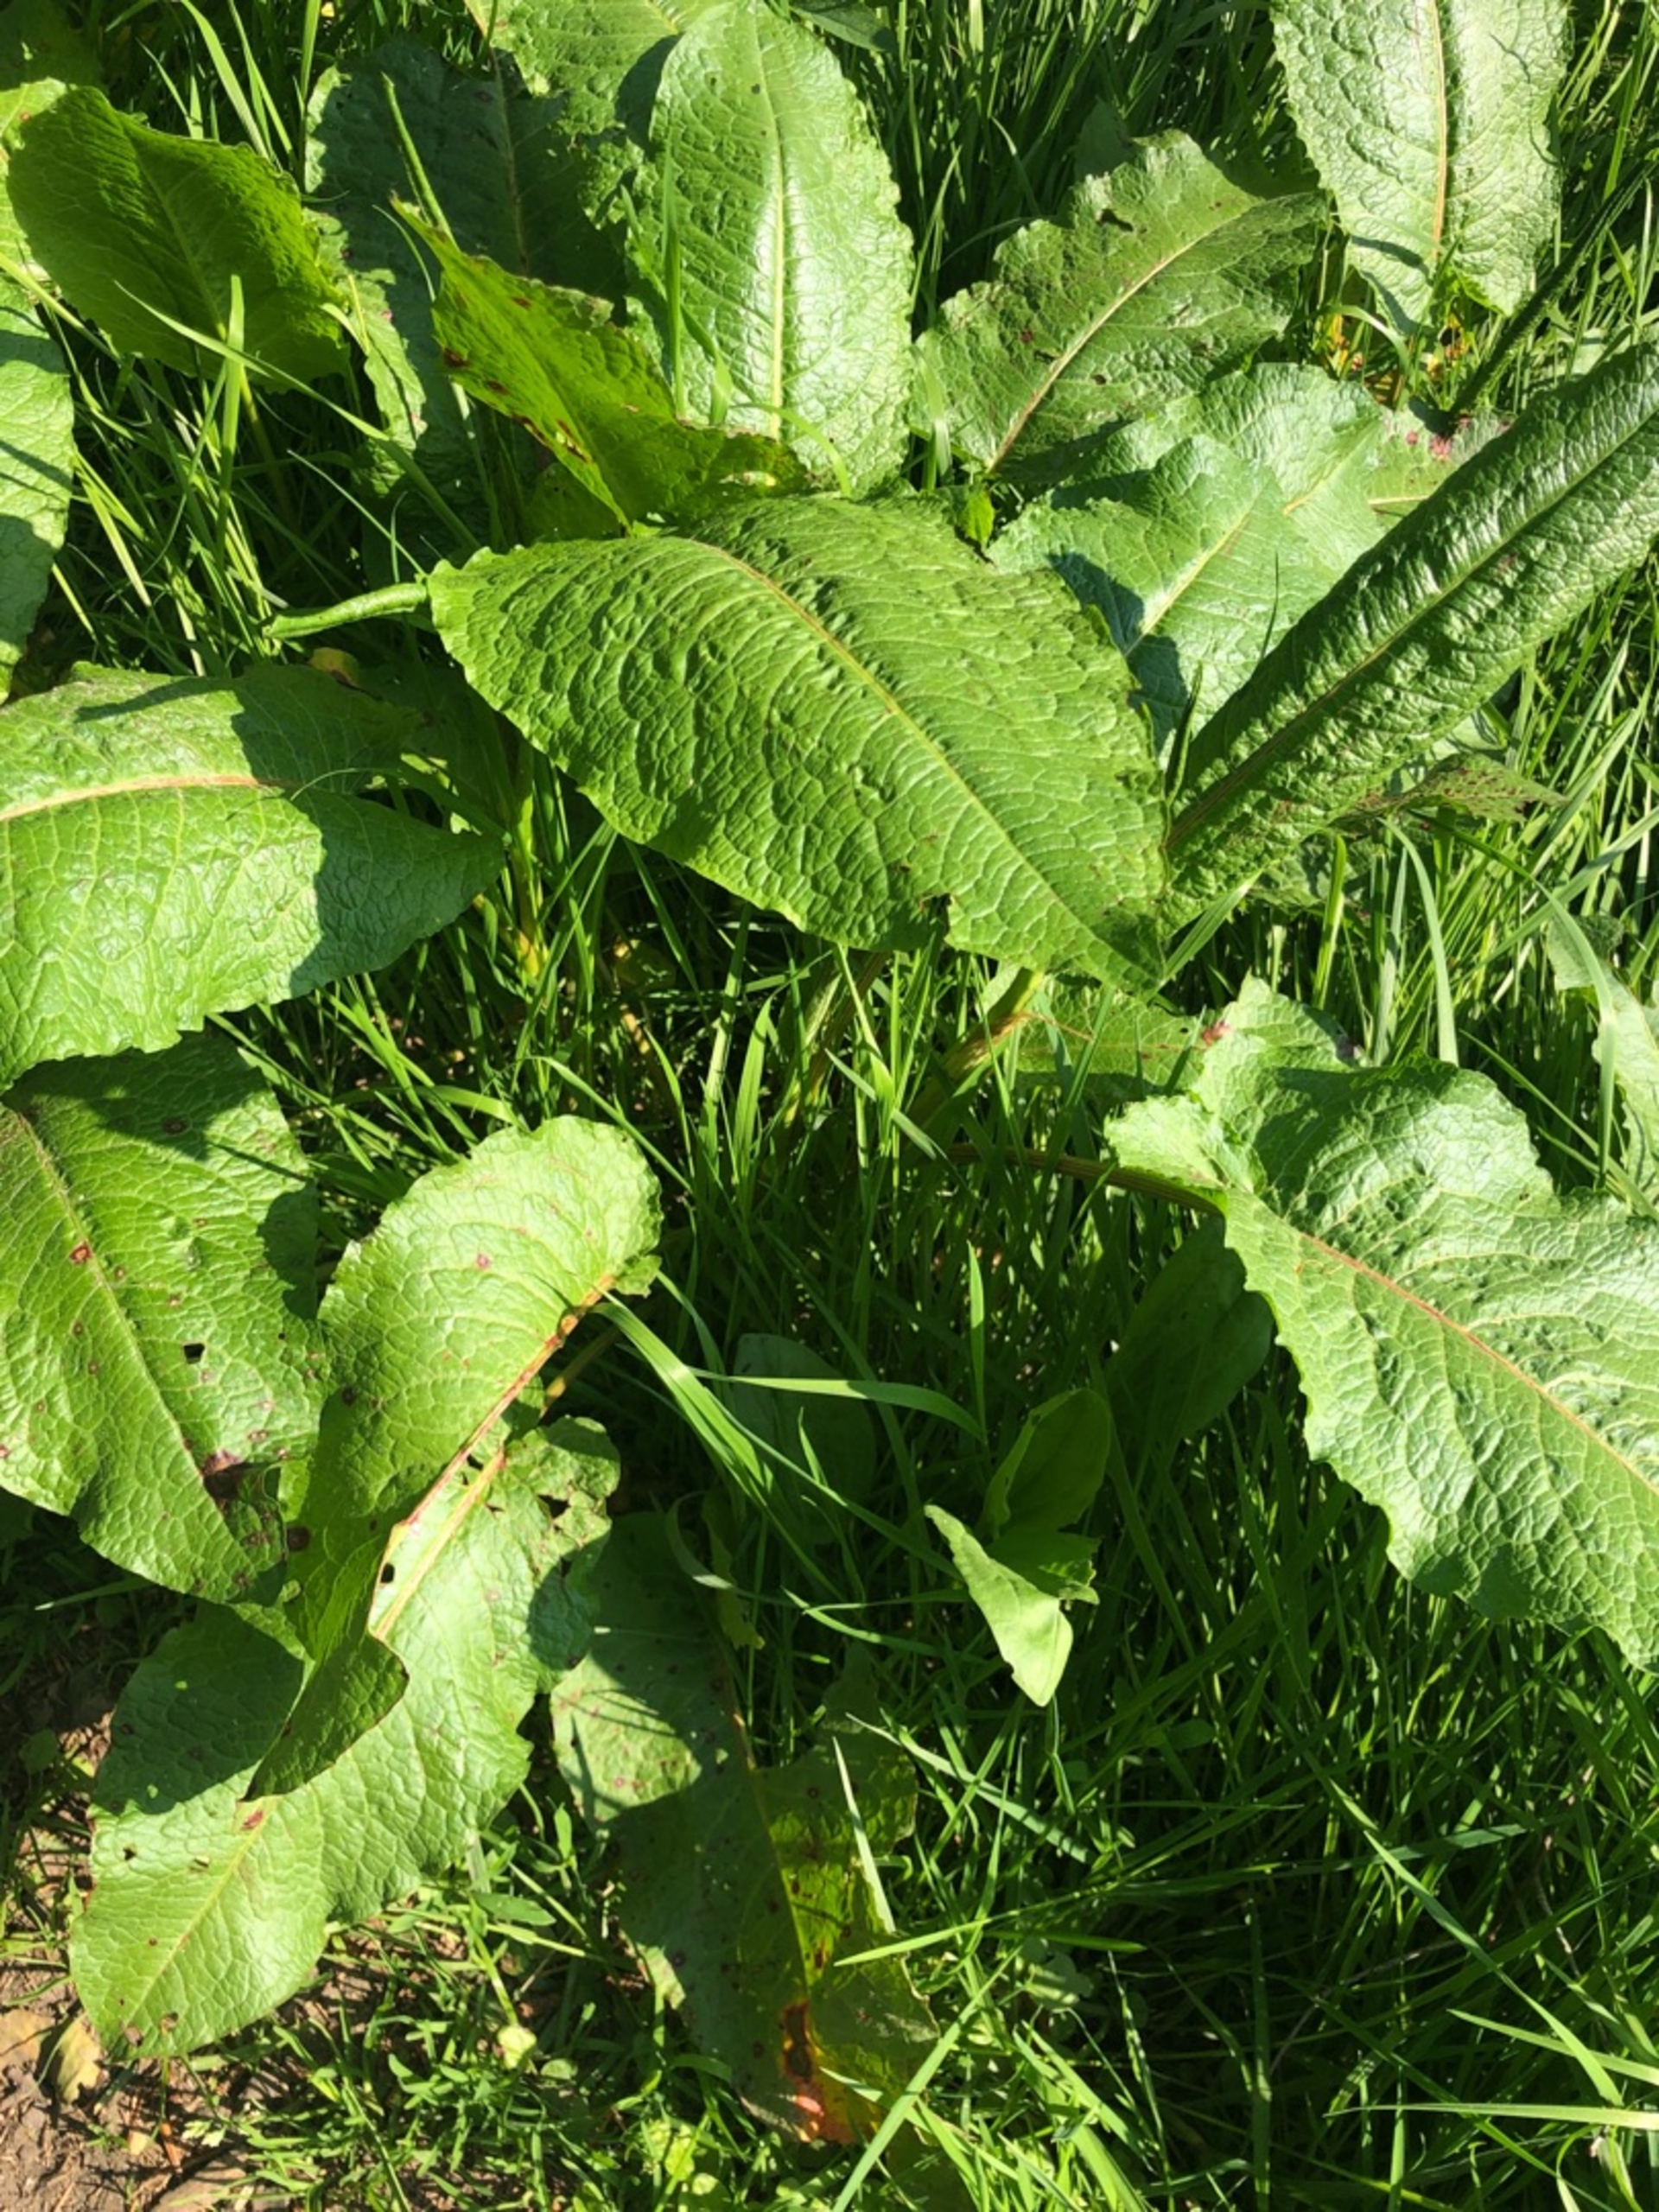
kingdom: Plantae
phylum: Tracheophyta
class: Magnoliopsida
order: Caryophyllales
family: Polygonaceae
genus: Rumex
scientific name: Rumex obtusifolius
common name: Butbladet skræppe
